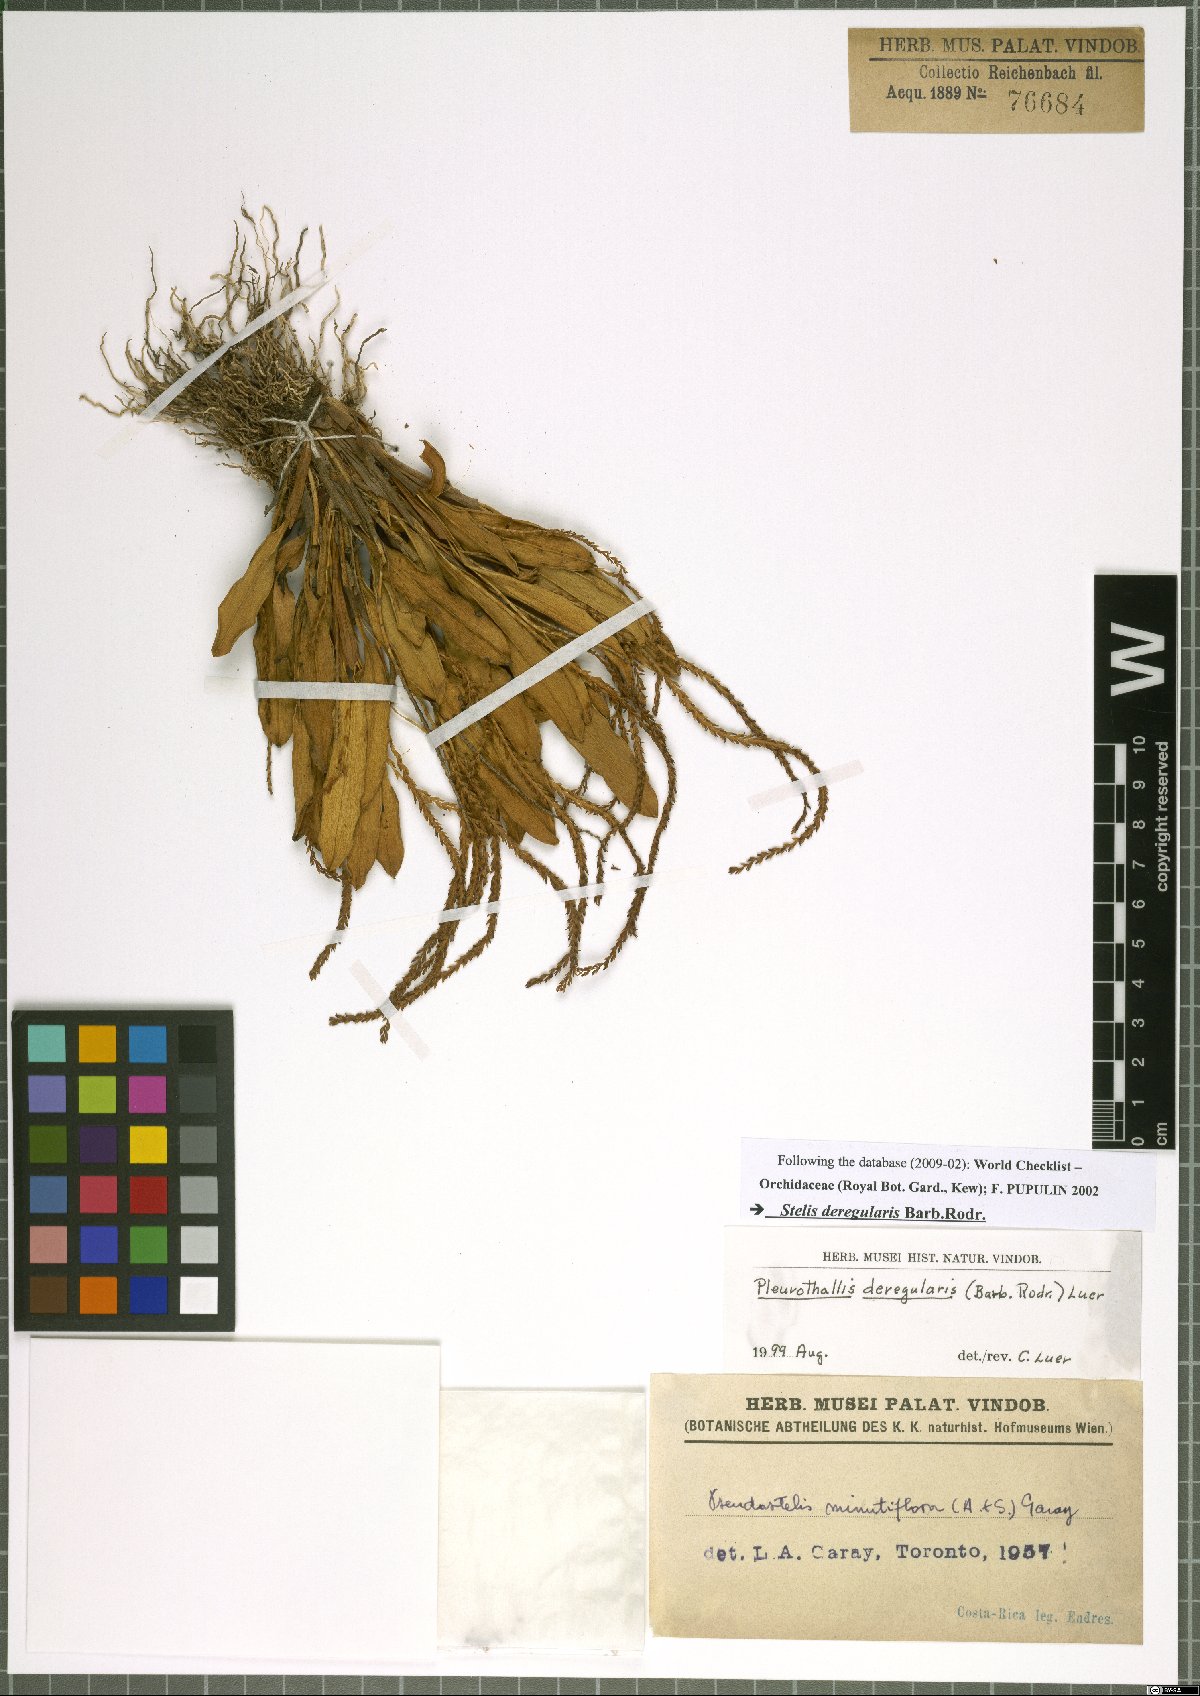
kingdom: Plantae
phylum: Tracheophyta
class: Liliopsida
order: Asparagales
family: Orchidaceae
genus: Stelis
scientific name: Stelis deregularis
